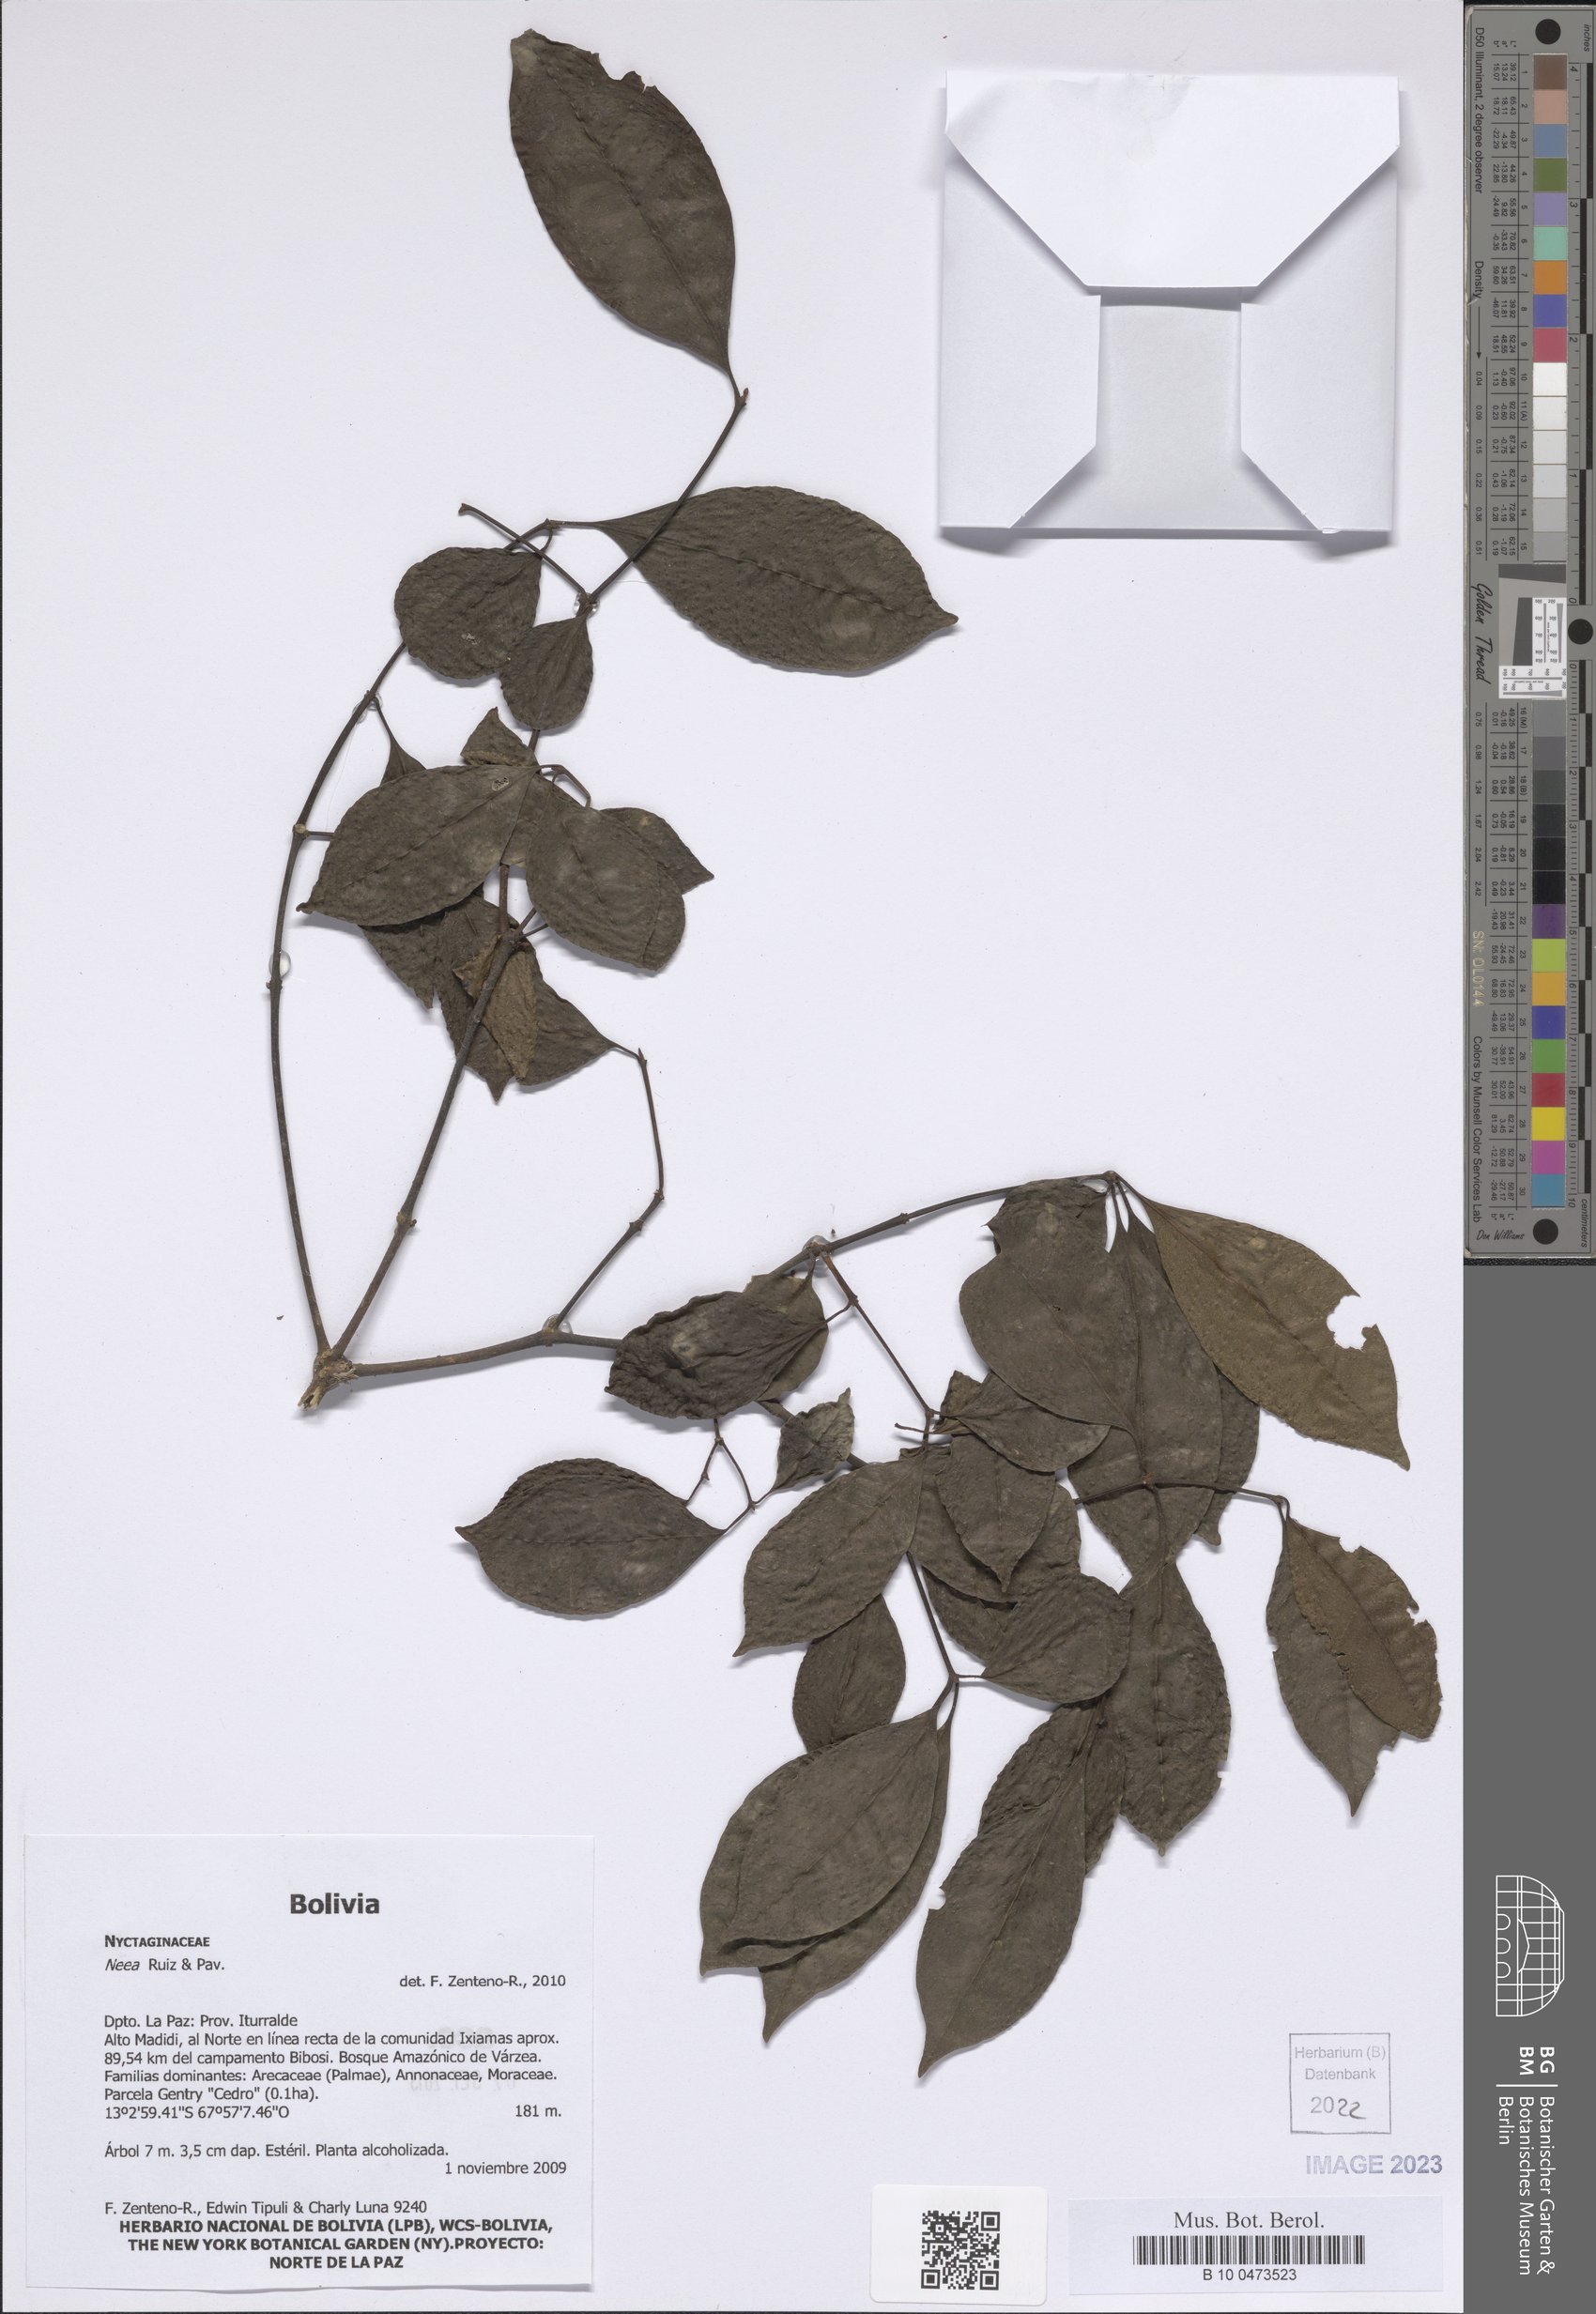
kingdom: Plantae
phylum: Tracheophyta
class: Magnoliopsida
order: Caryophyllales
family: Nyctaginaceae
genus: Neea
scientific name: Neea
